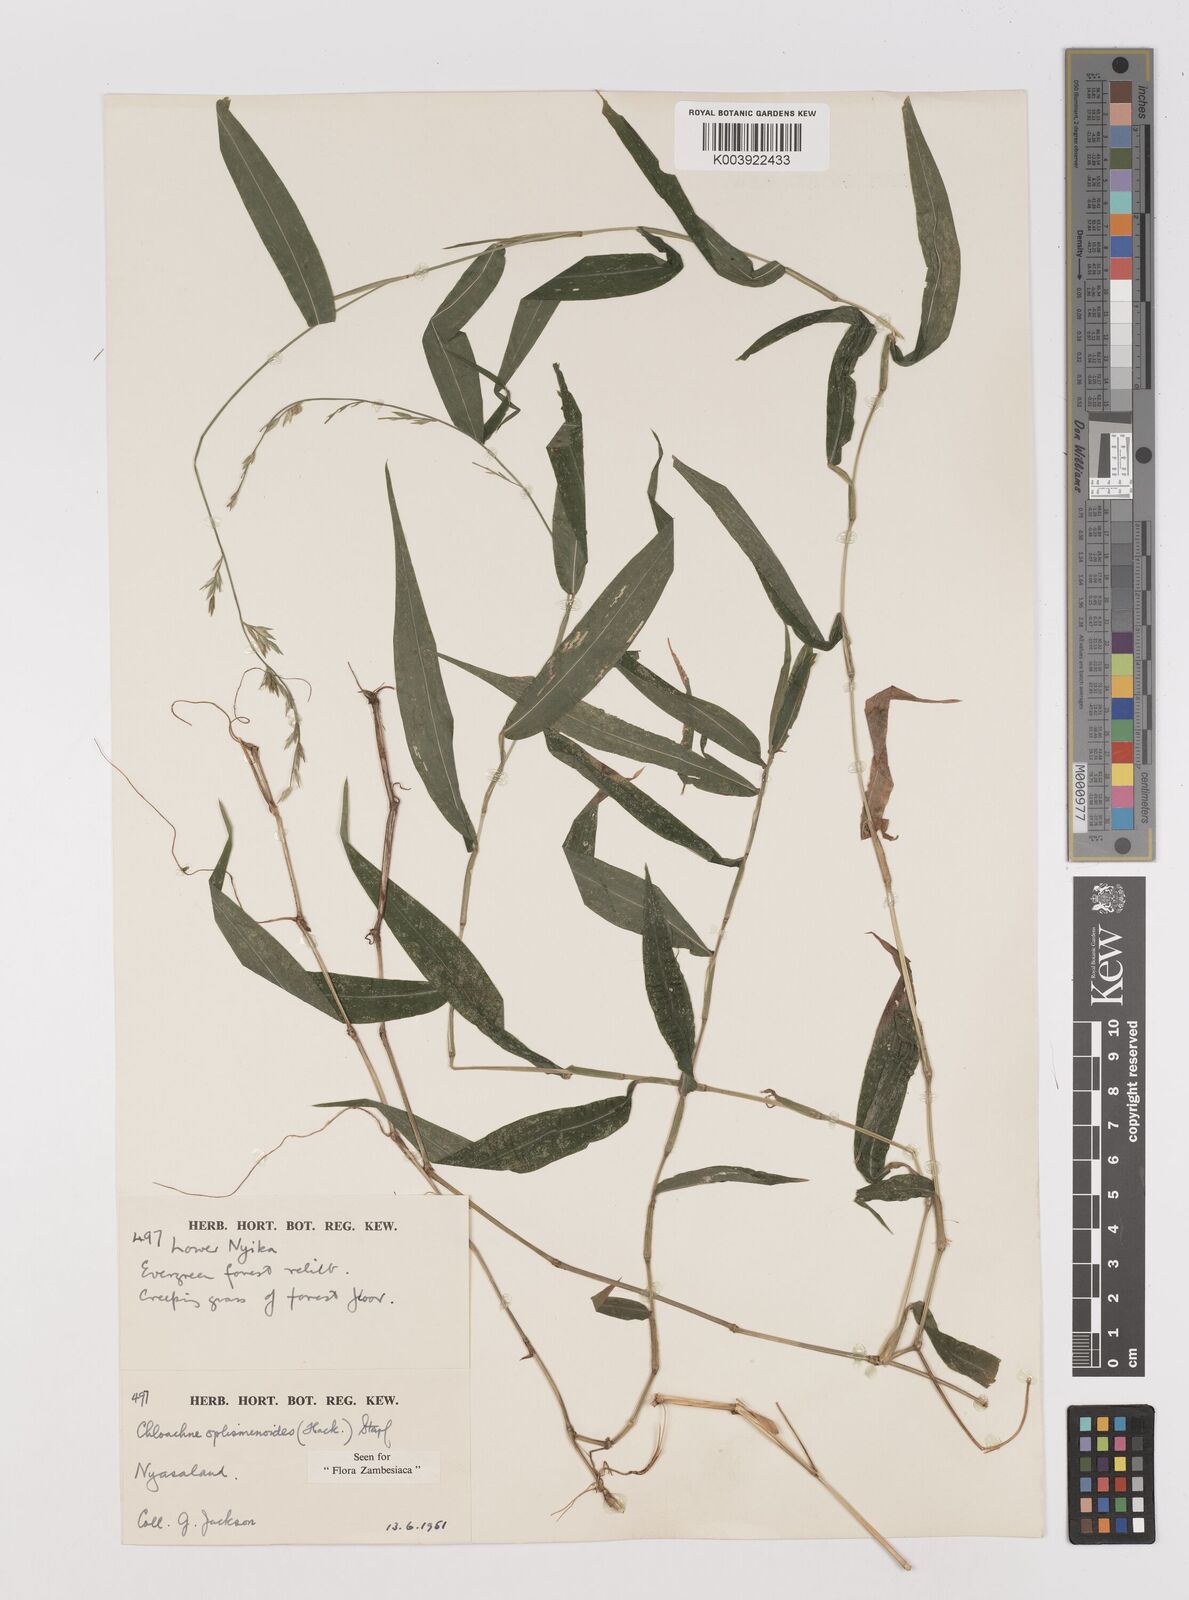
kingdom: Plantae
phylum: Tracheophyta
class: Liliopsida
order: Poales
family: Poaceae
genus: Poecilostachys
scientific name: Poecilostachys oplismenoides
